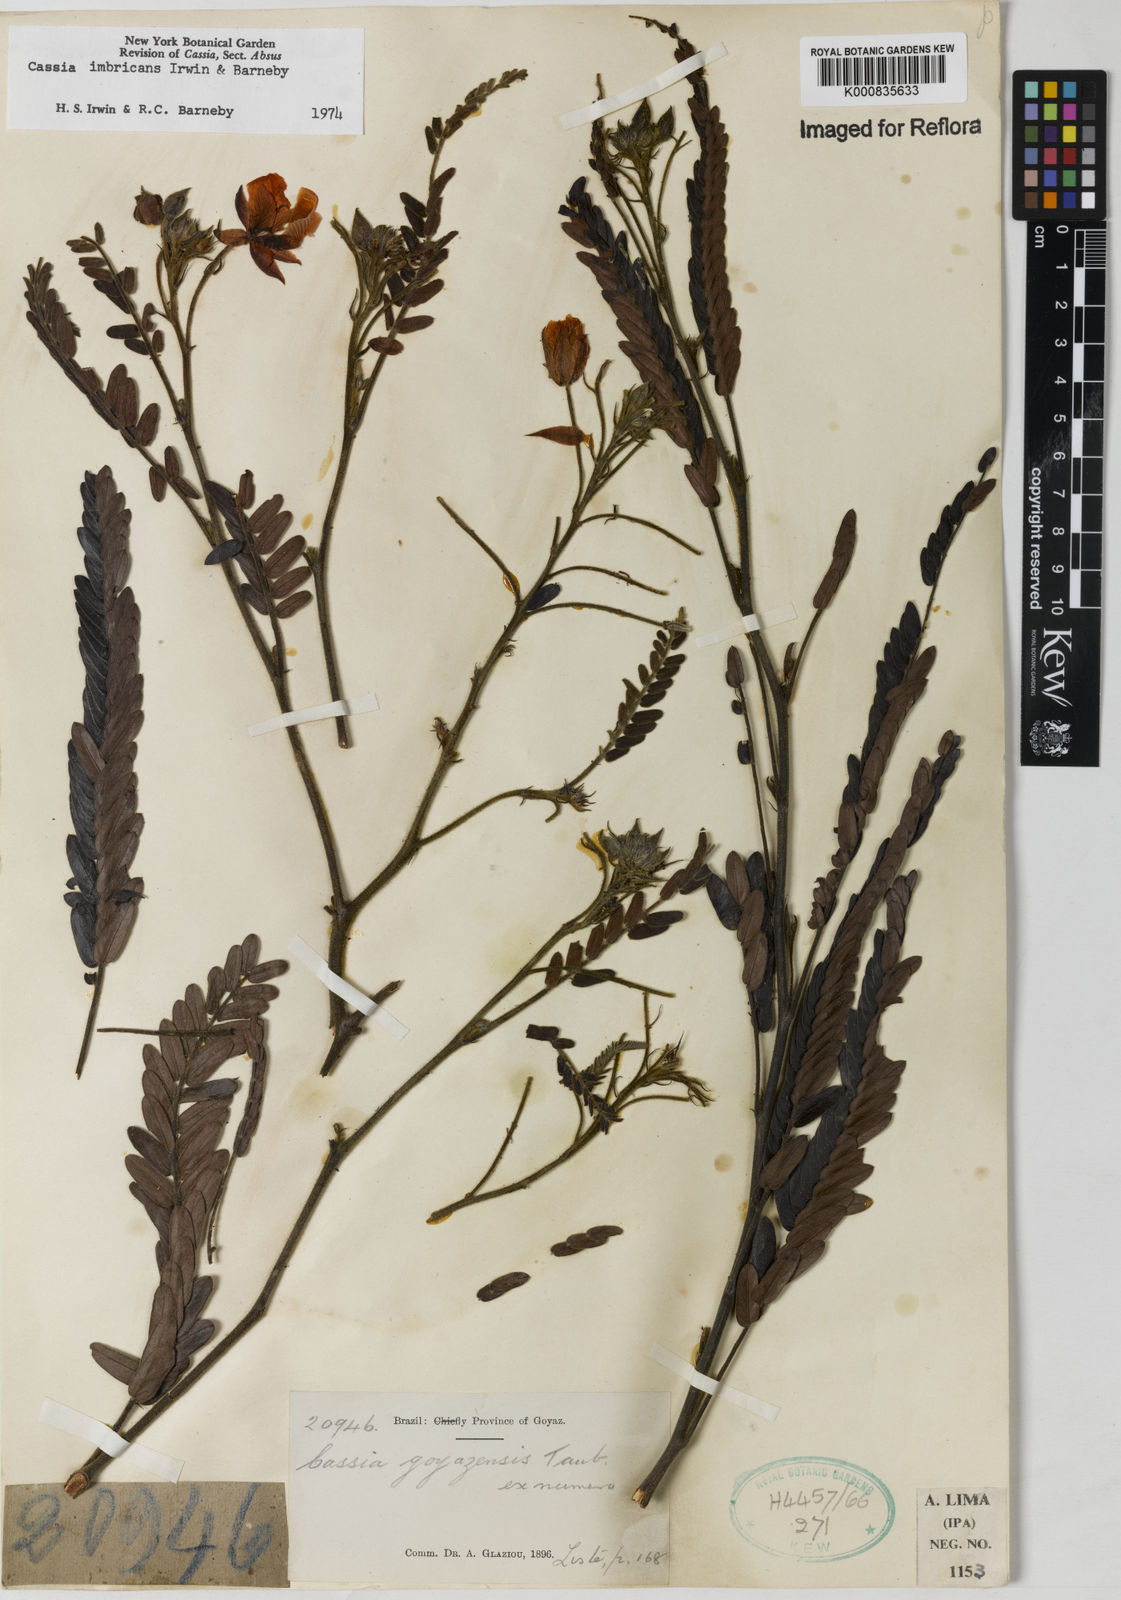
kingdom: Plantae
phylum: Tracheophyta
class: Magnoliopsida
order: Fabales
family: Fabaceae
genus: Chamaecrista
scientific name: Chamaecrista imbricans
